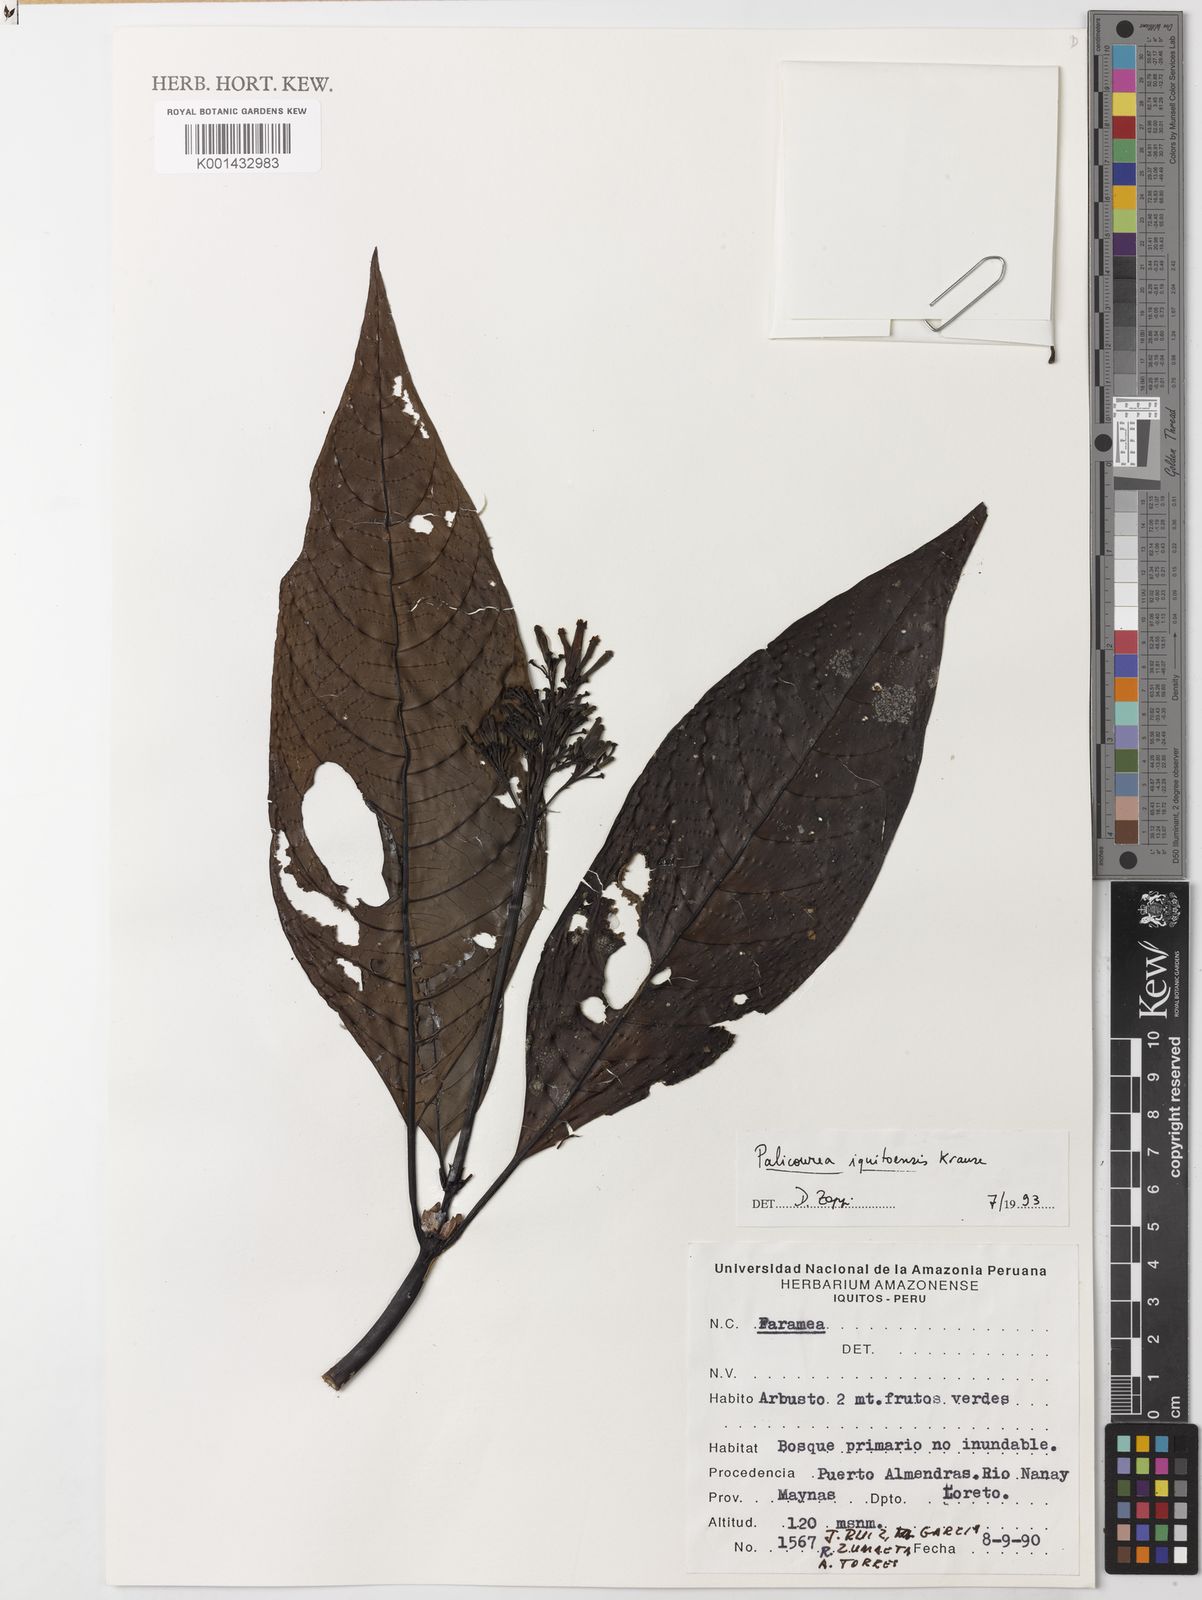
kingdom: Plantae
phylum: Tracheophyta
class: Magnoliopsida
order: Gentianales
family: Rubiaceae
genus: Palicourea
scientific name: Palicourea iquitoensis
